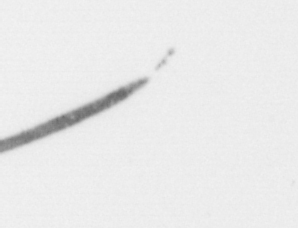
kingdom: Chromista
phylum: Ochrophyta
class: Bacillariophyceae
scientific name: Bacillariophyceae
